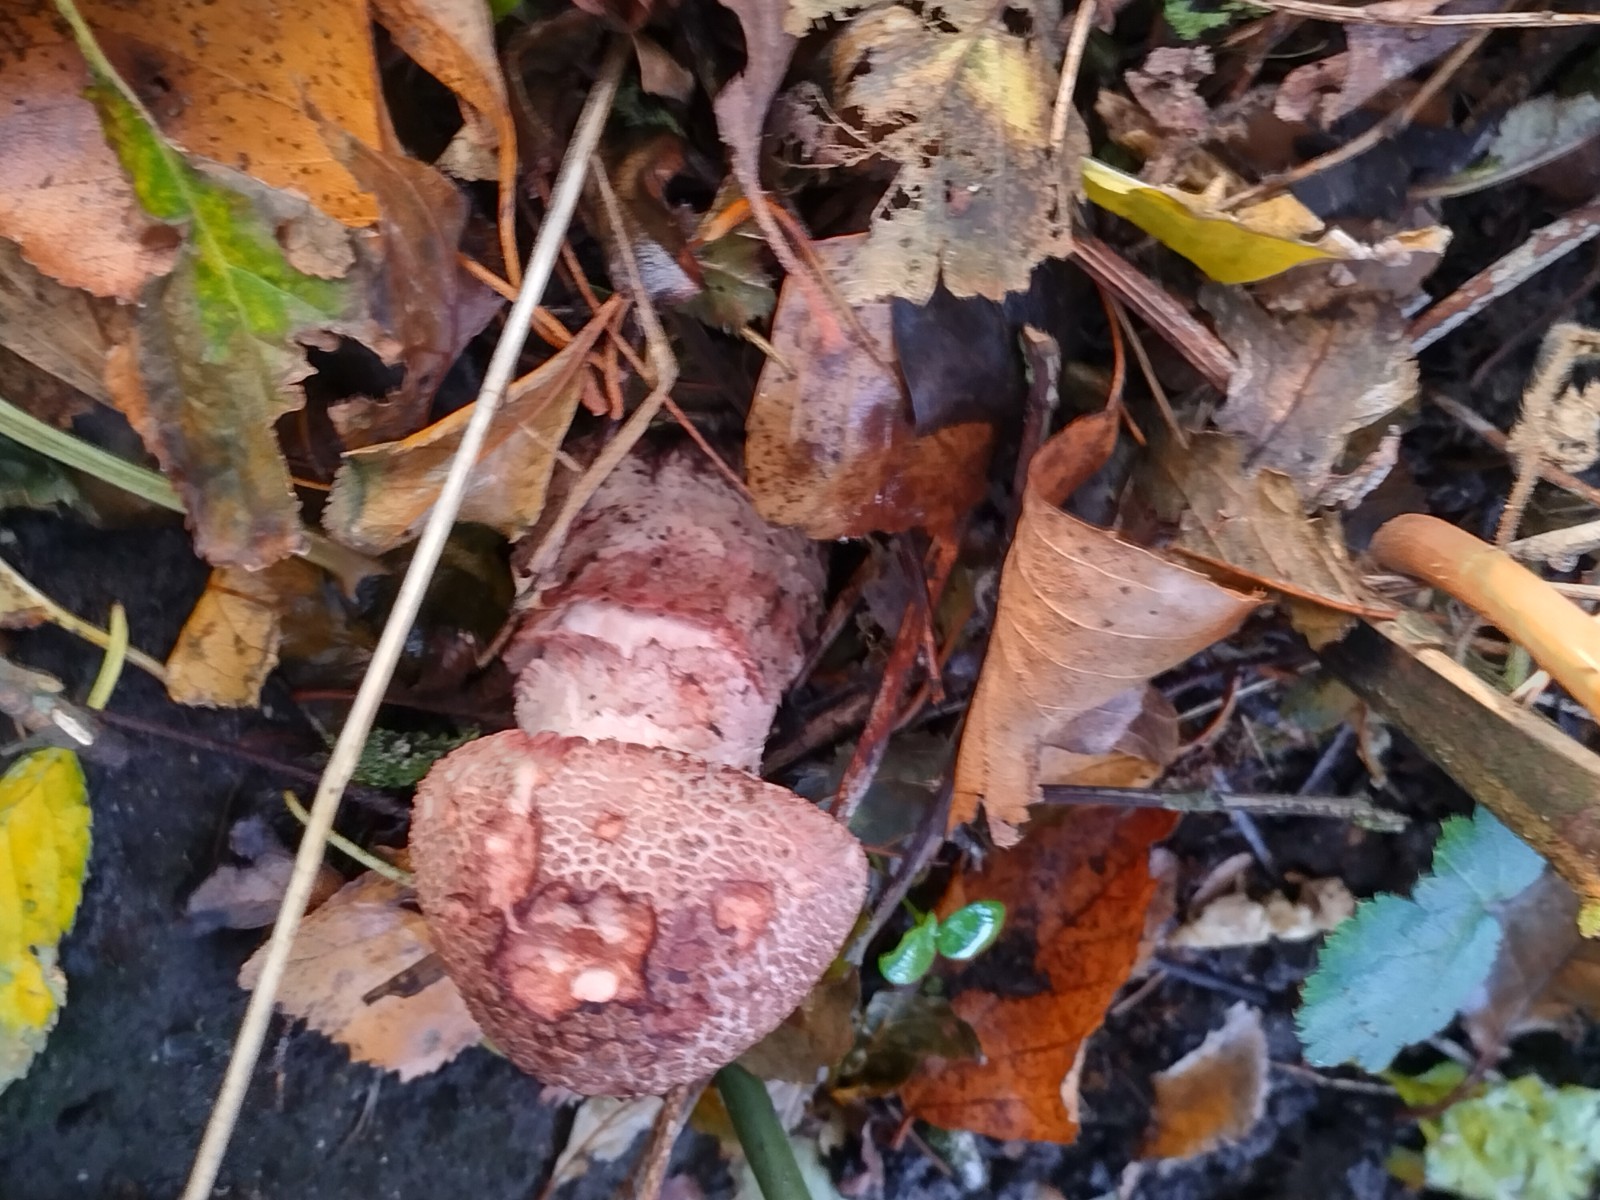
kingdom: Fungi
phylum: Basidiomycota
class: Agaricomycetes
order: Agaricales
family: Amanitaceae
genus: Amanita
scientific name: Amanita rubescens
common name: rødmende fluesvamp
